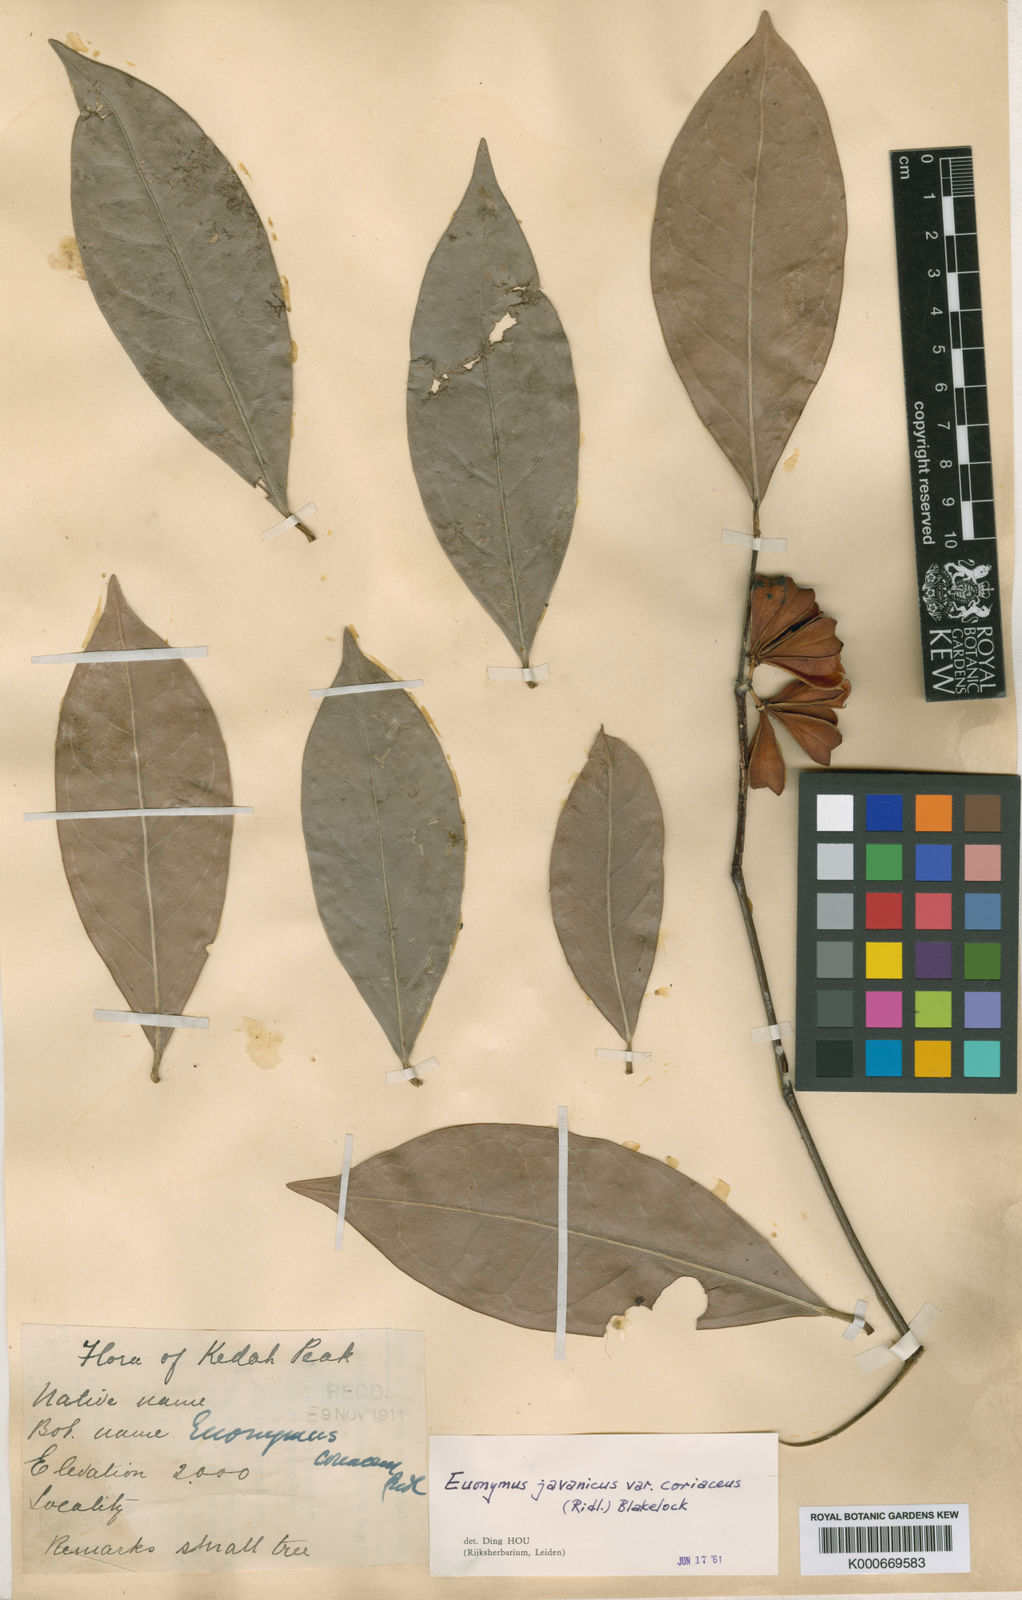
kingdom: Plantae
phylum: Tracheophyta
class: Magnoliopsida
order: Celastrales
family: Celastraceae
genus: Euonymus
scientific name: Euonymus indicus
